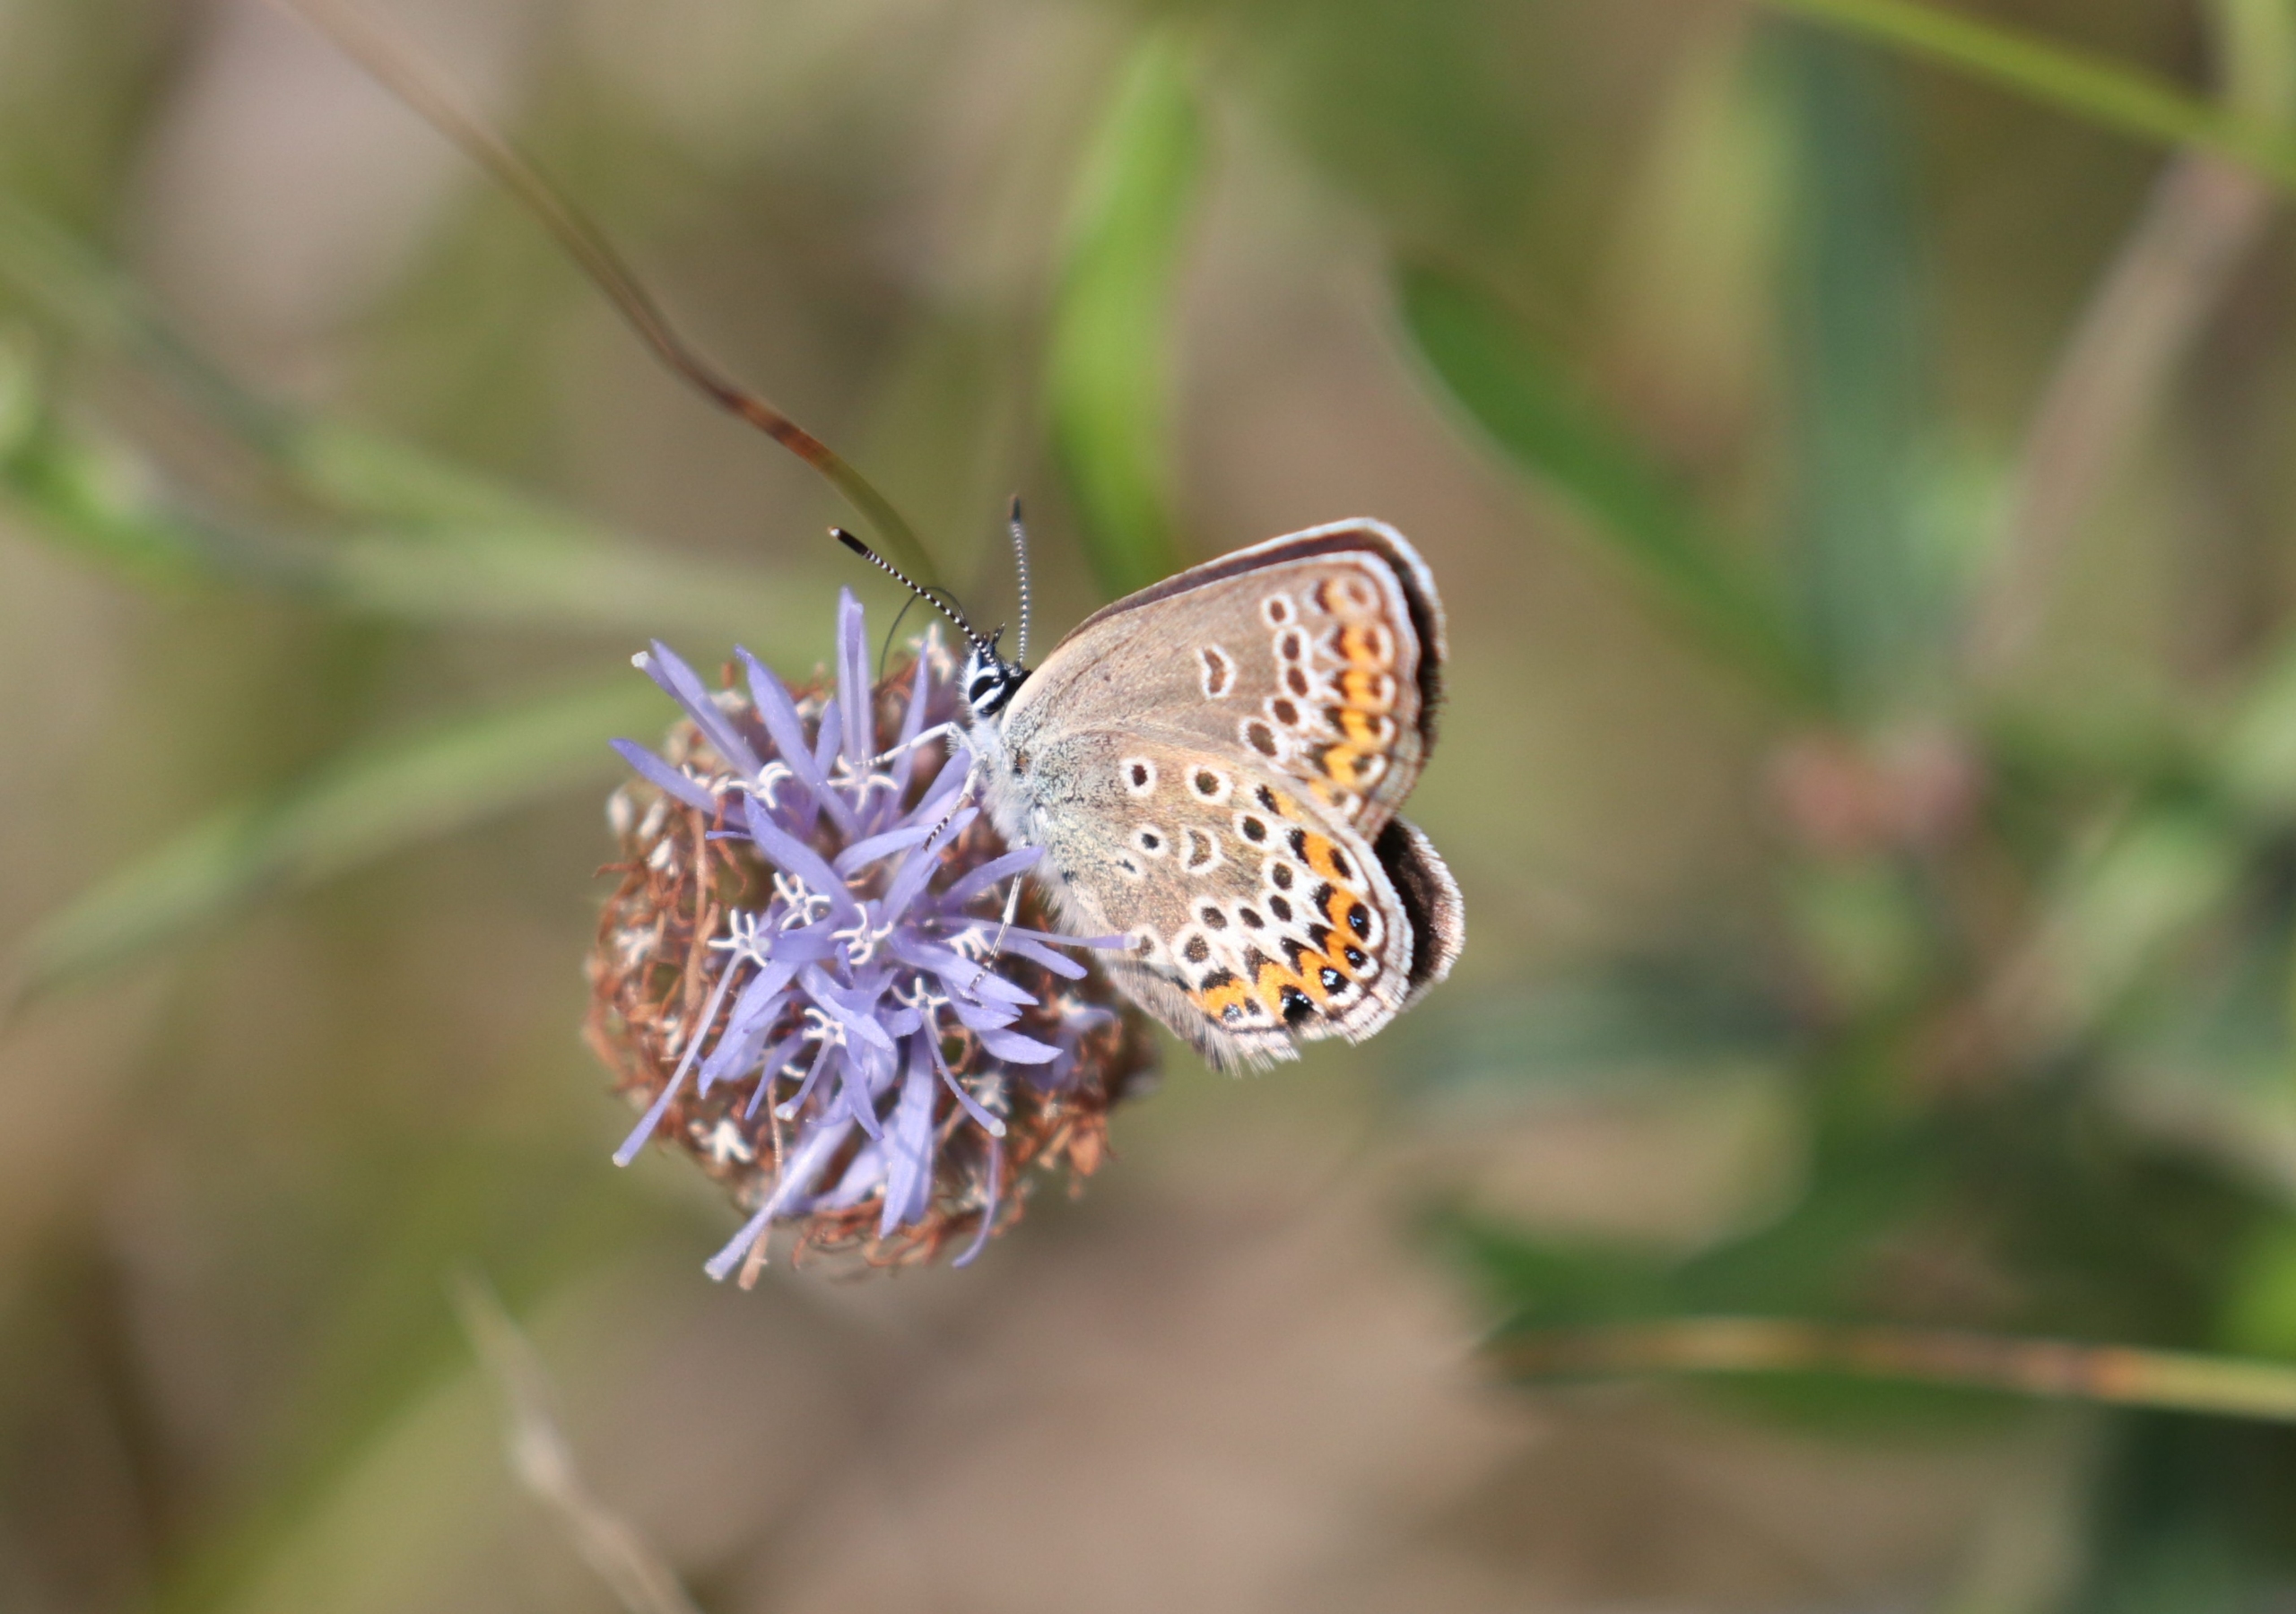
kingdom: Animalia
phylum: Arthropoda
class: Insecta
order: Lepidoptera
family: Lycaenidae
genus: Plebejus
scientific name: Plebejus argus
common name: Argusblåfugl
